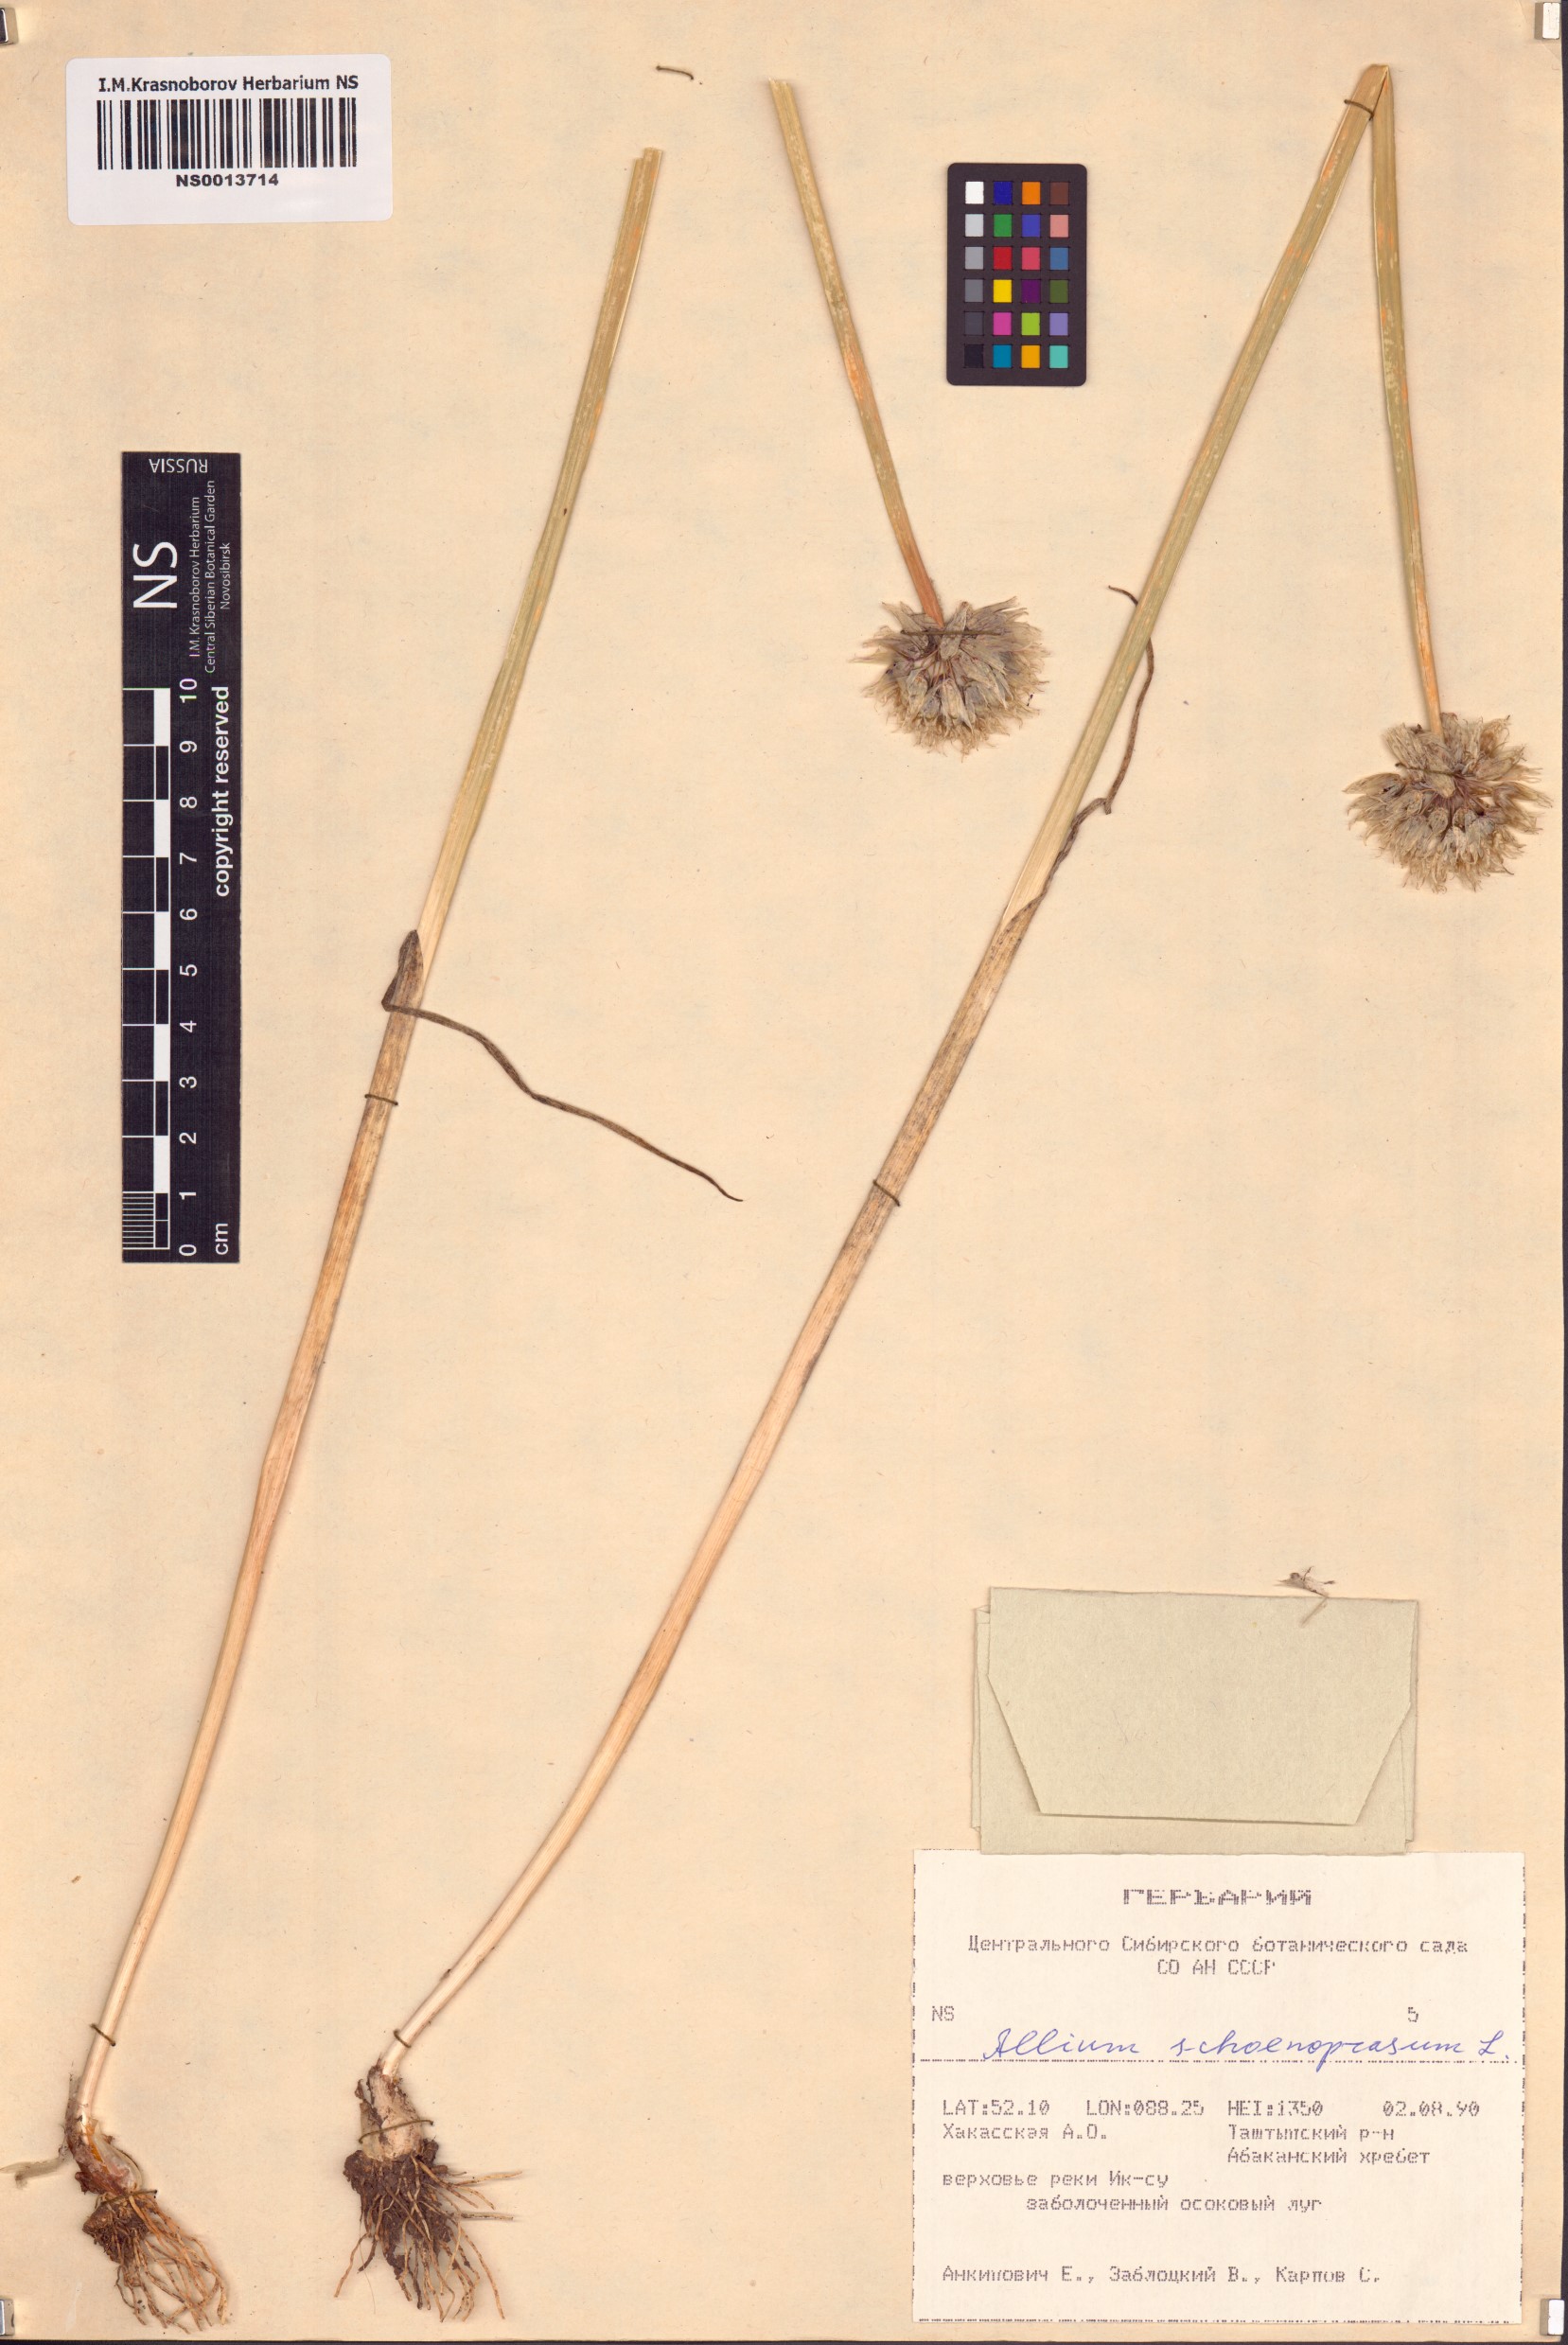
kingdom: Plantae
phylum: Tracheophyta
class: Liliopsida
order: Asparagales
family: Amaryllidaceae
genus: Allium
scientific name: Allium schoenoprasum
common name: Chives
